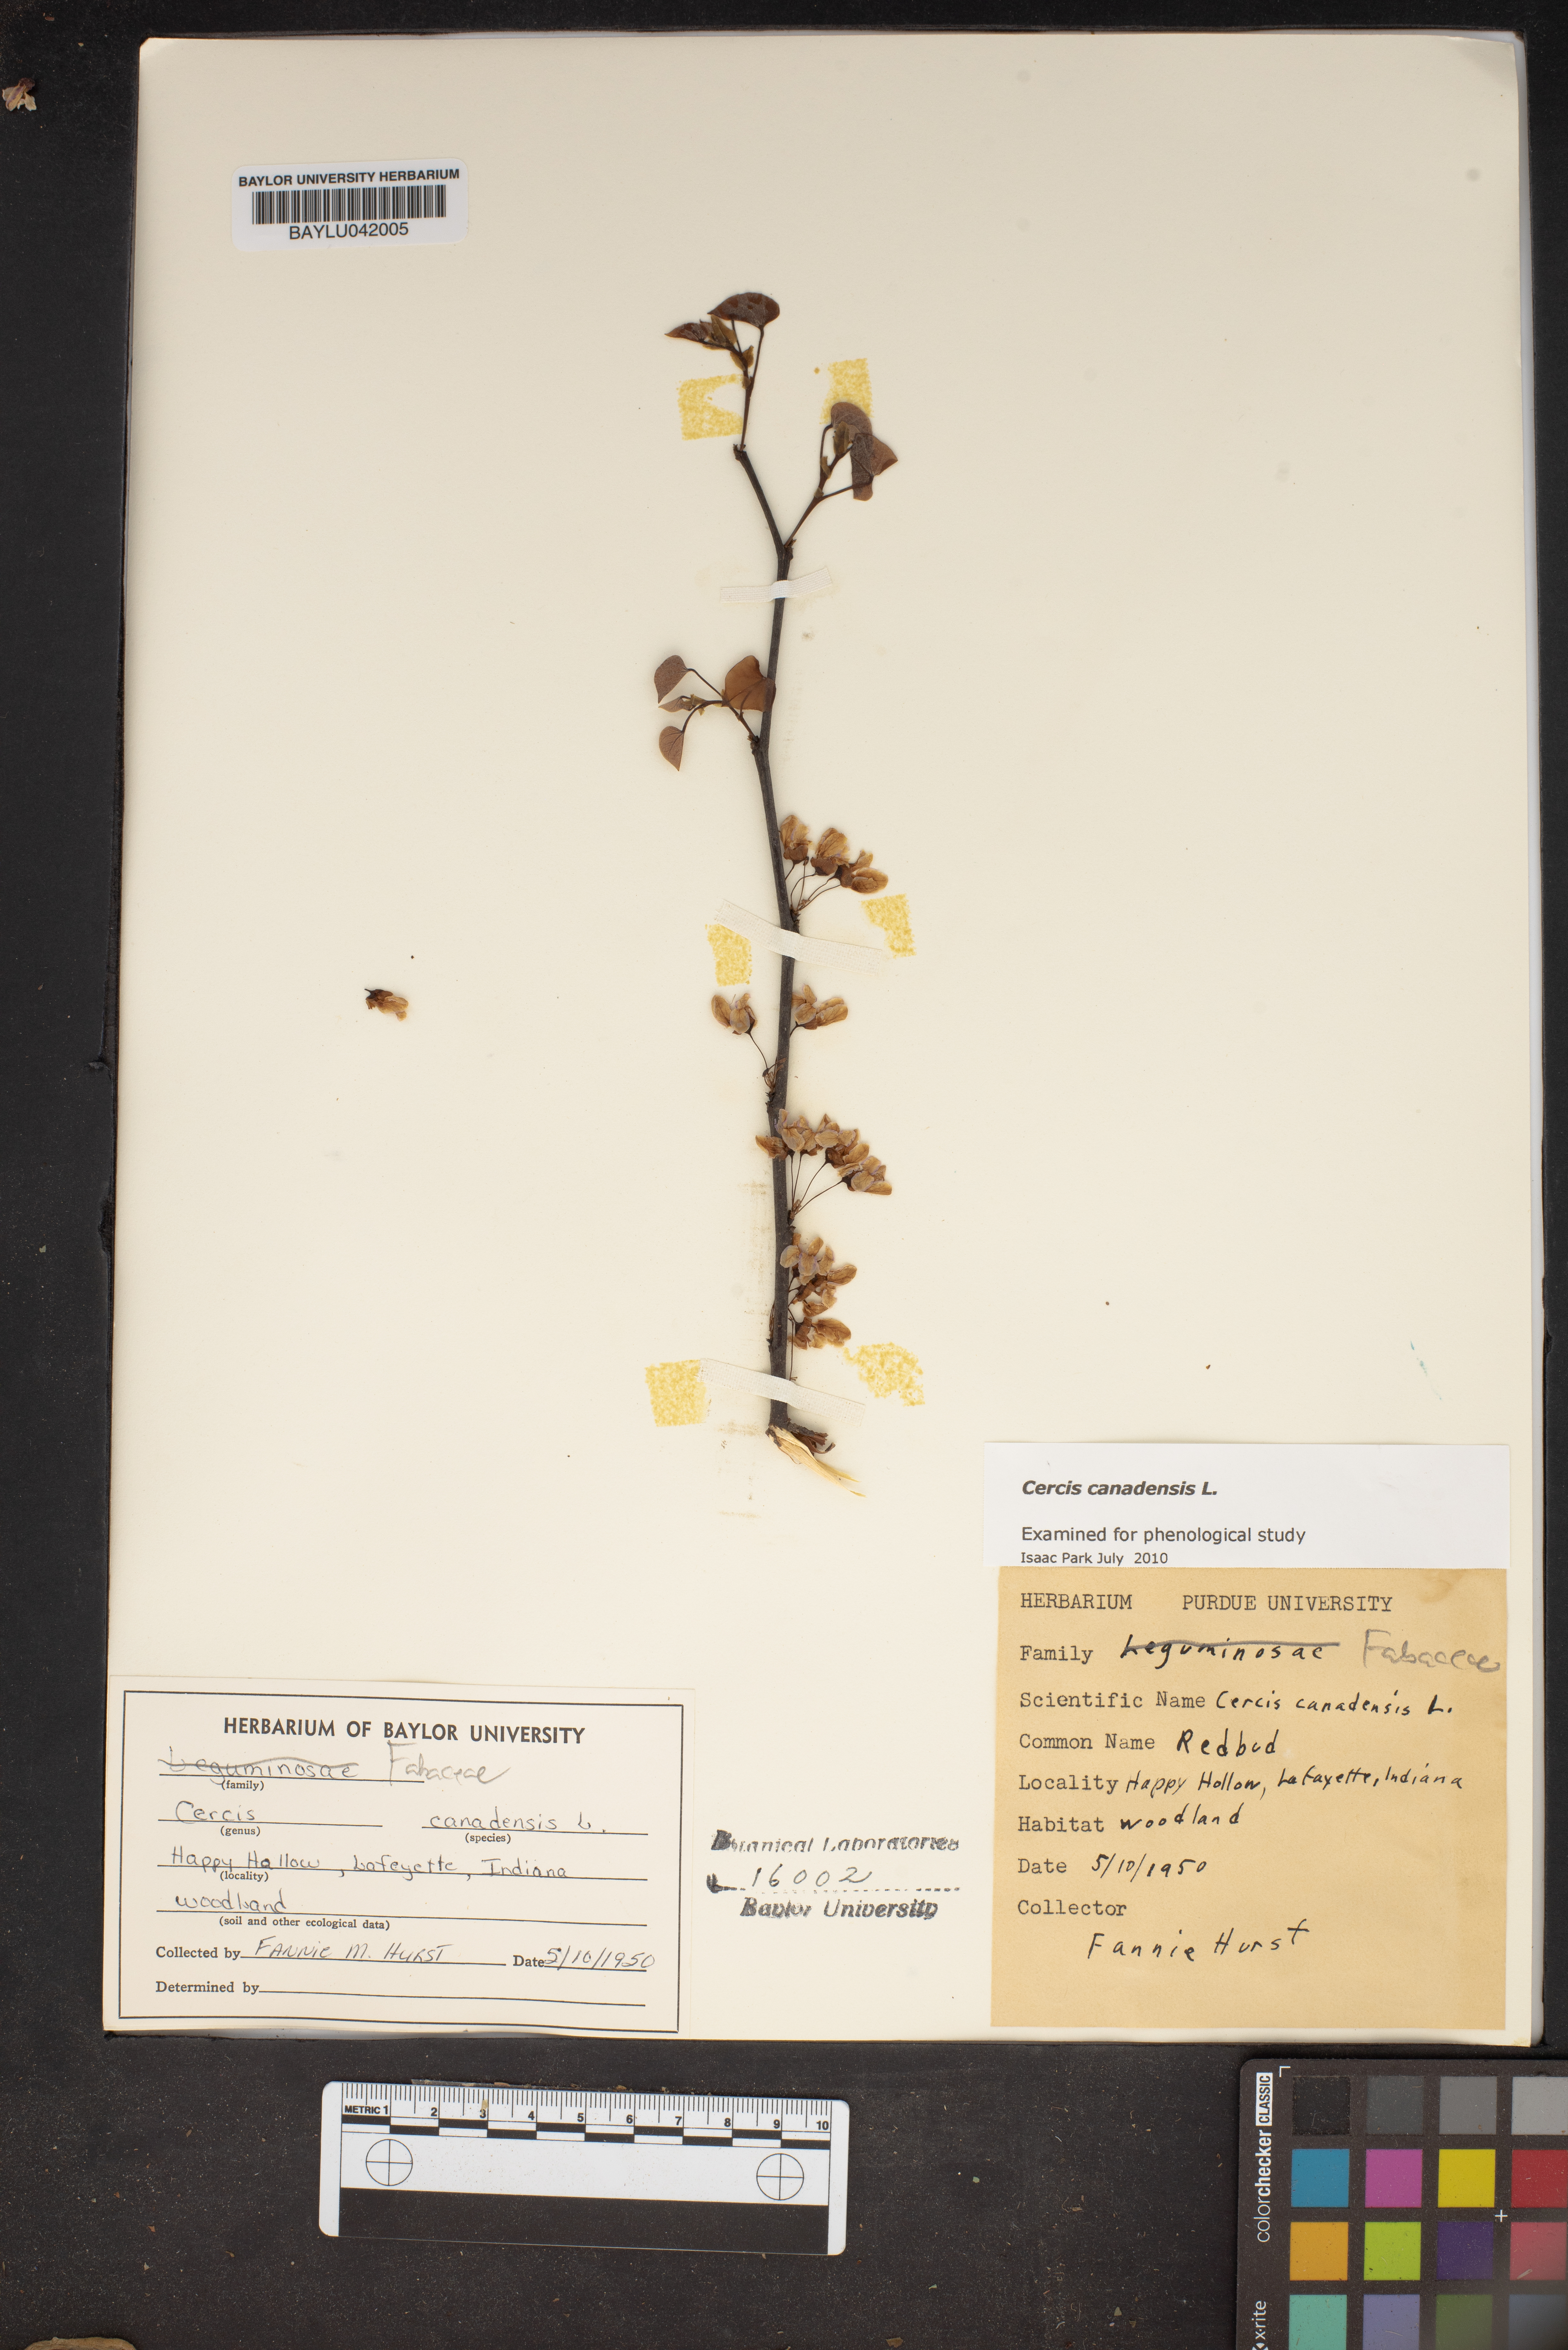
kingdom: Plantae
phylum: Tracheophyta
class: Magnoliopsida
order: Fabales
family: Fabaceae
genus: Cercis
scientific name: Cercis canadensis
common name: Eastern redbud
